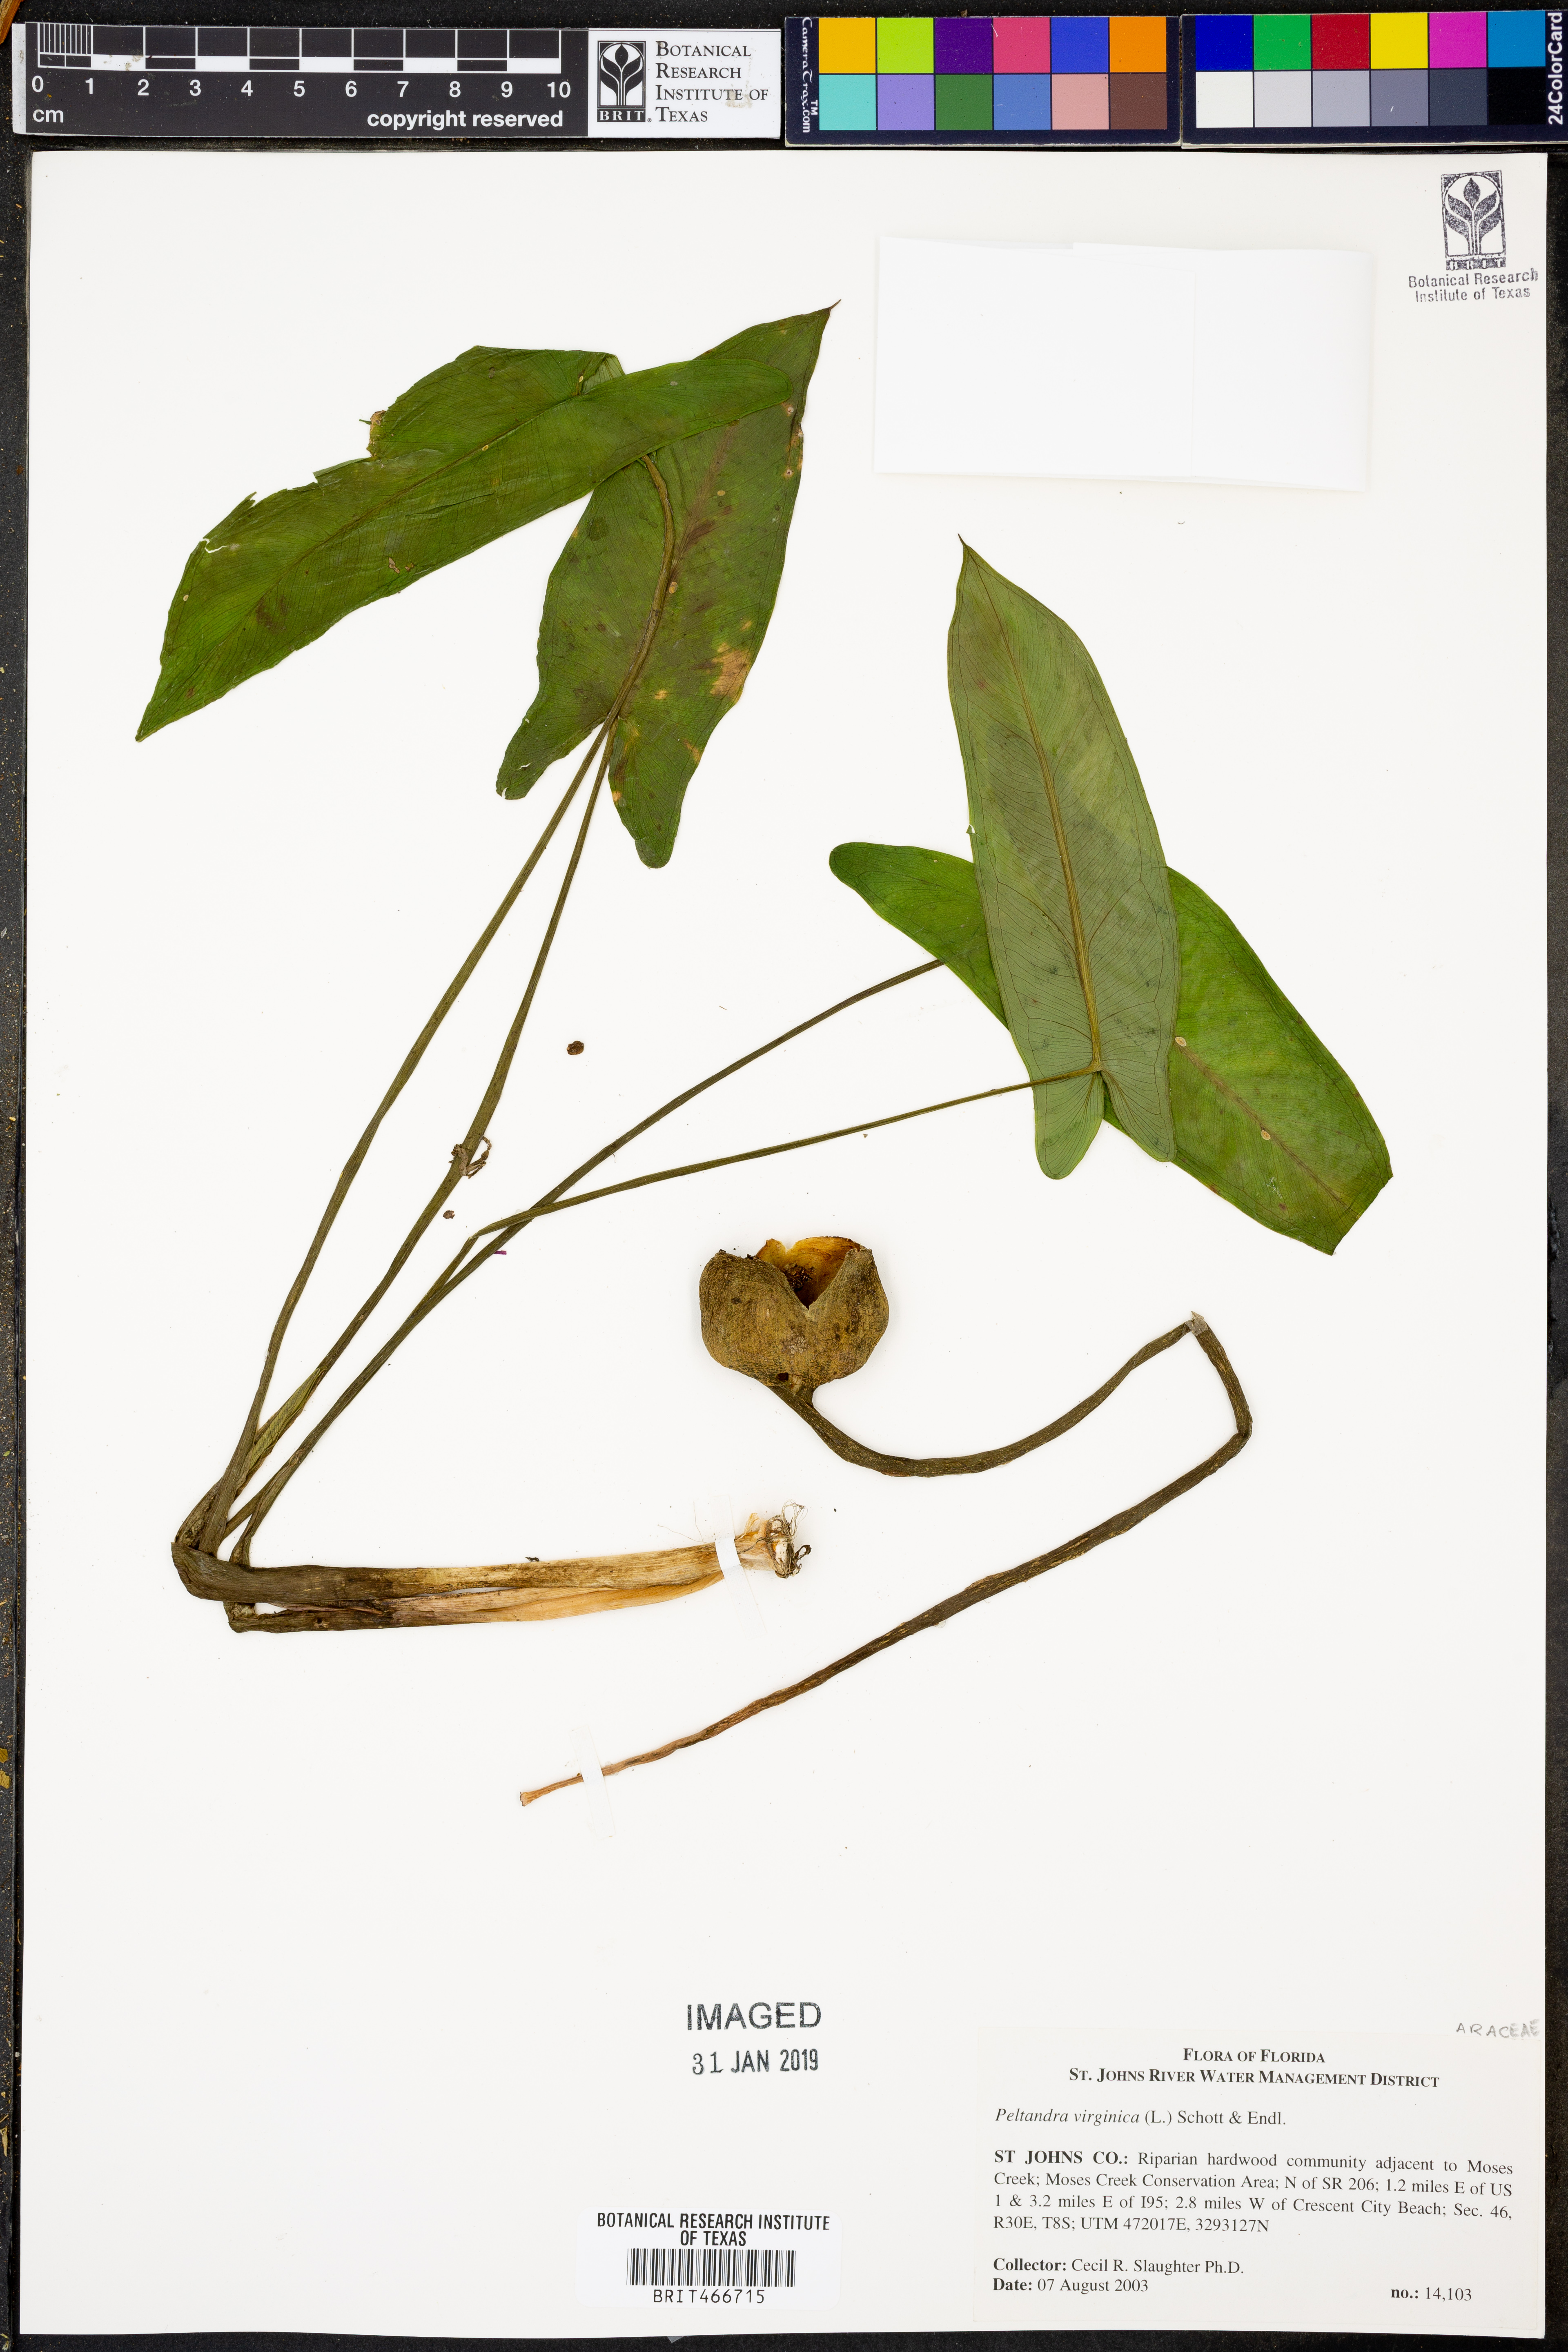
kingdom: Plantae
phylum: Tracheophyta
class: Liliopsida
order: Alismatales
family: Araceae
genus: Peltandra
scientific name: Peltandra virginica
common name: Arrow arum
